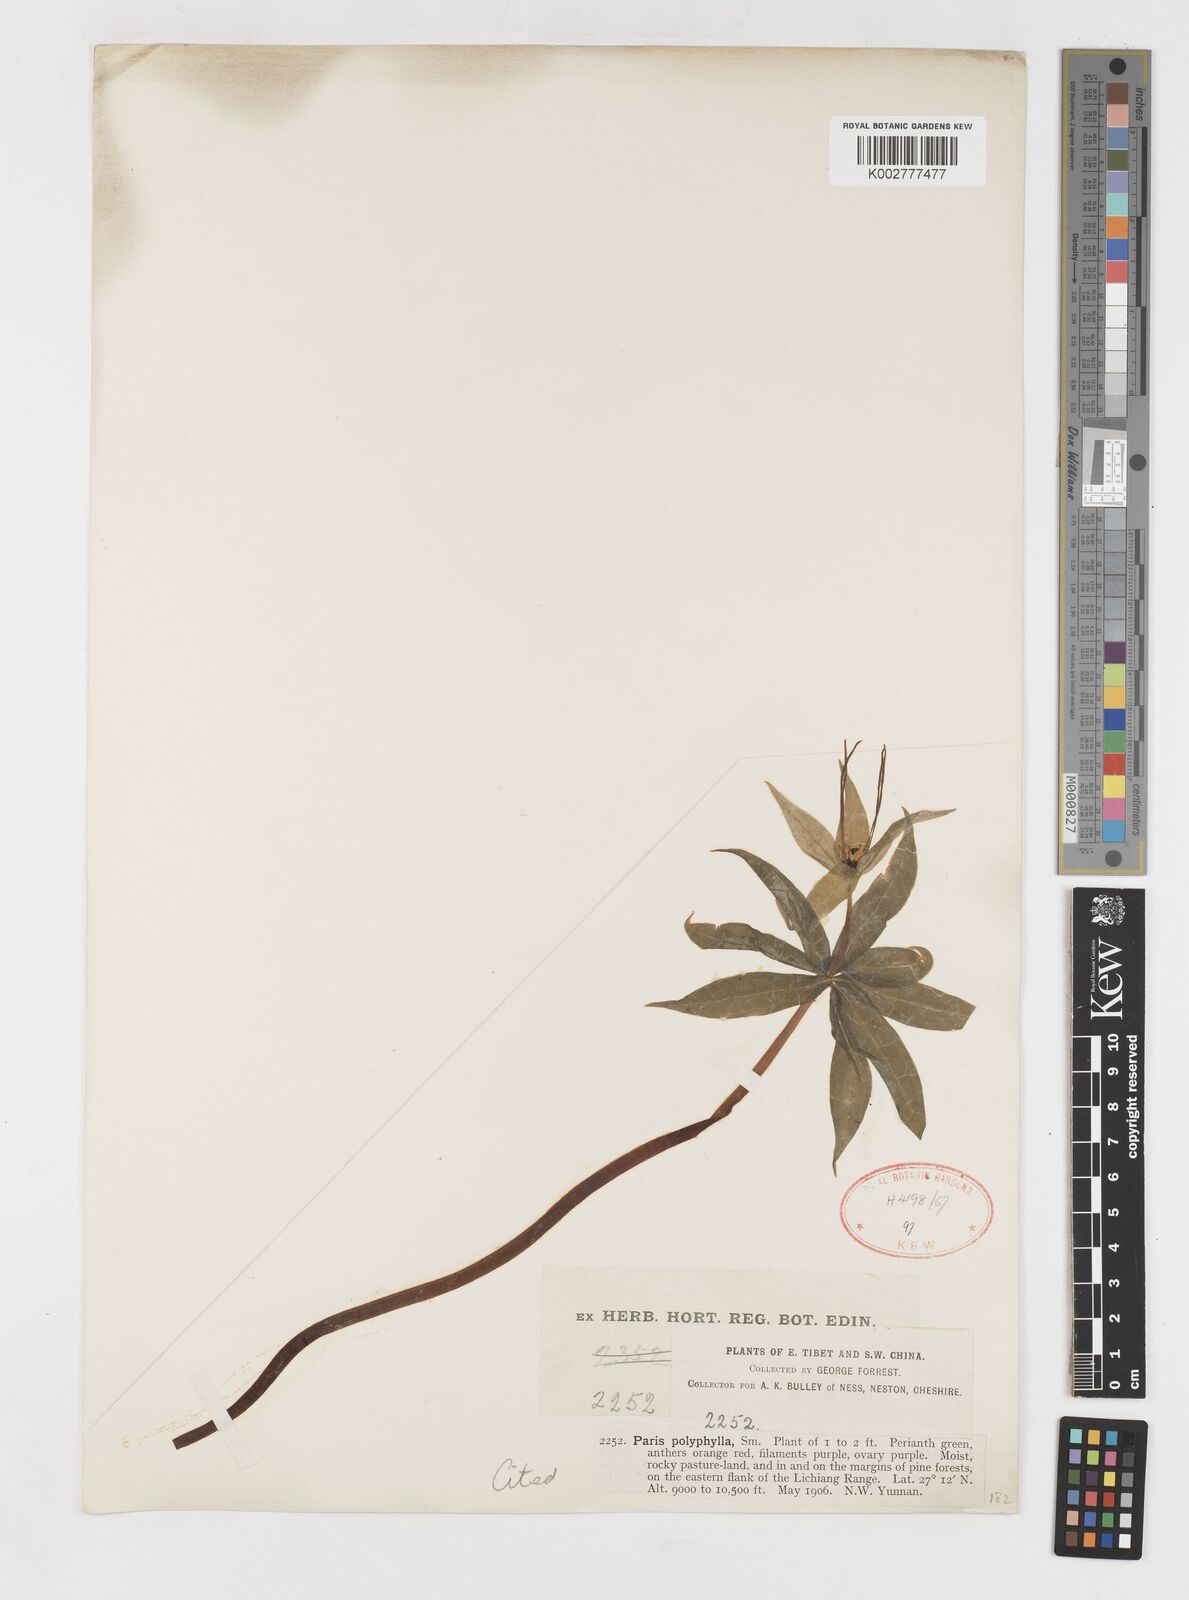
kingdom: Plantae
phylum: Tracheophyta
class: Liliopsida
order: Liliales
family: Melanthiaceae
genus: Paris
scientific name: Paris thibetica
